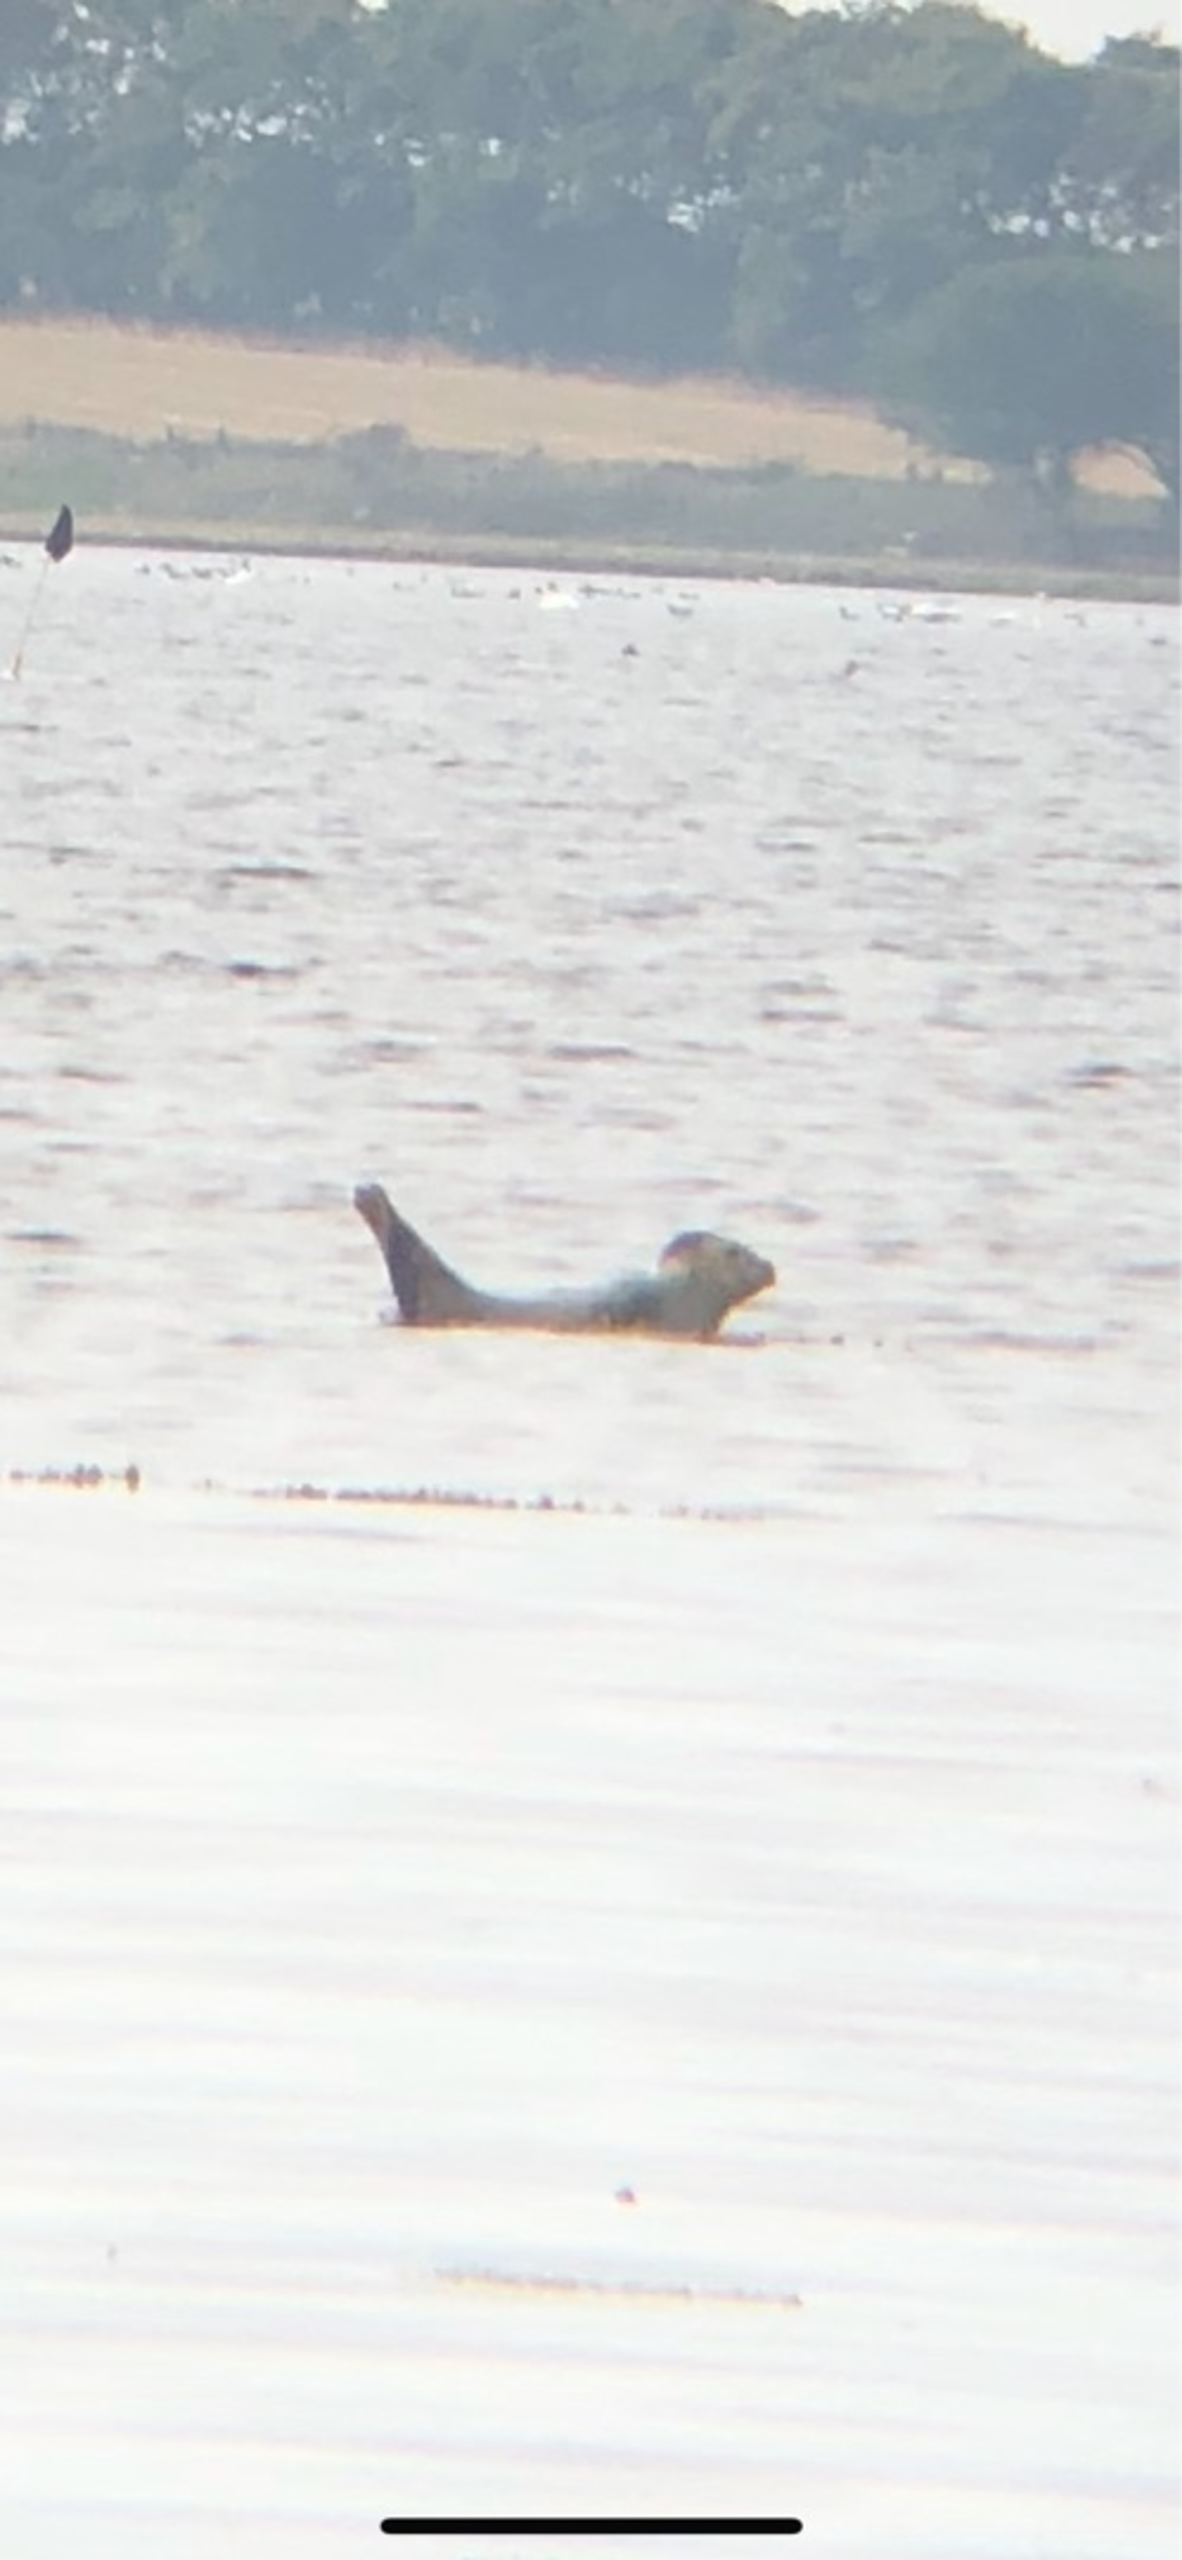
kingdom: Animalia
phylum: Chordata
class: Mammalia
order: Carnivora
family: Phocidae
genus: Phoca
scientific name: Phoca vitulina
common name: Spættet sæl
